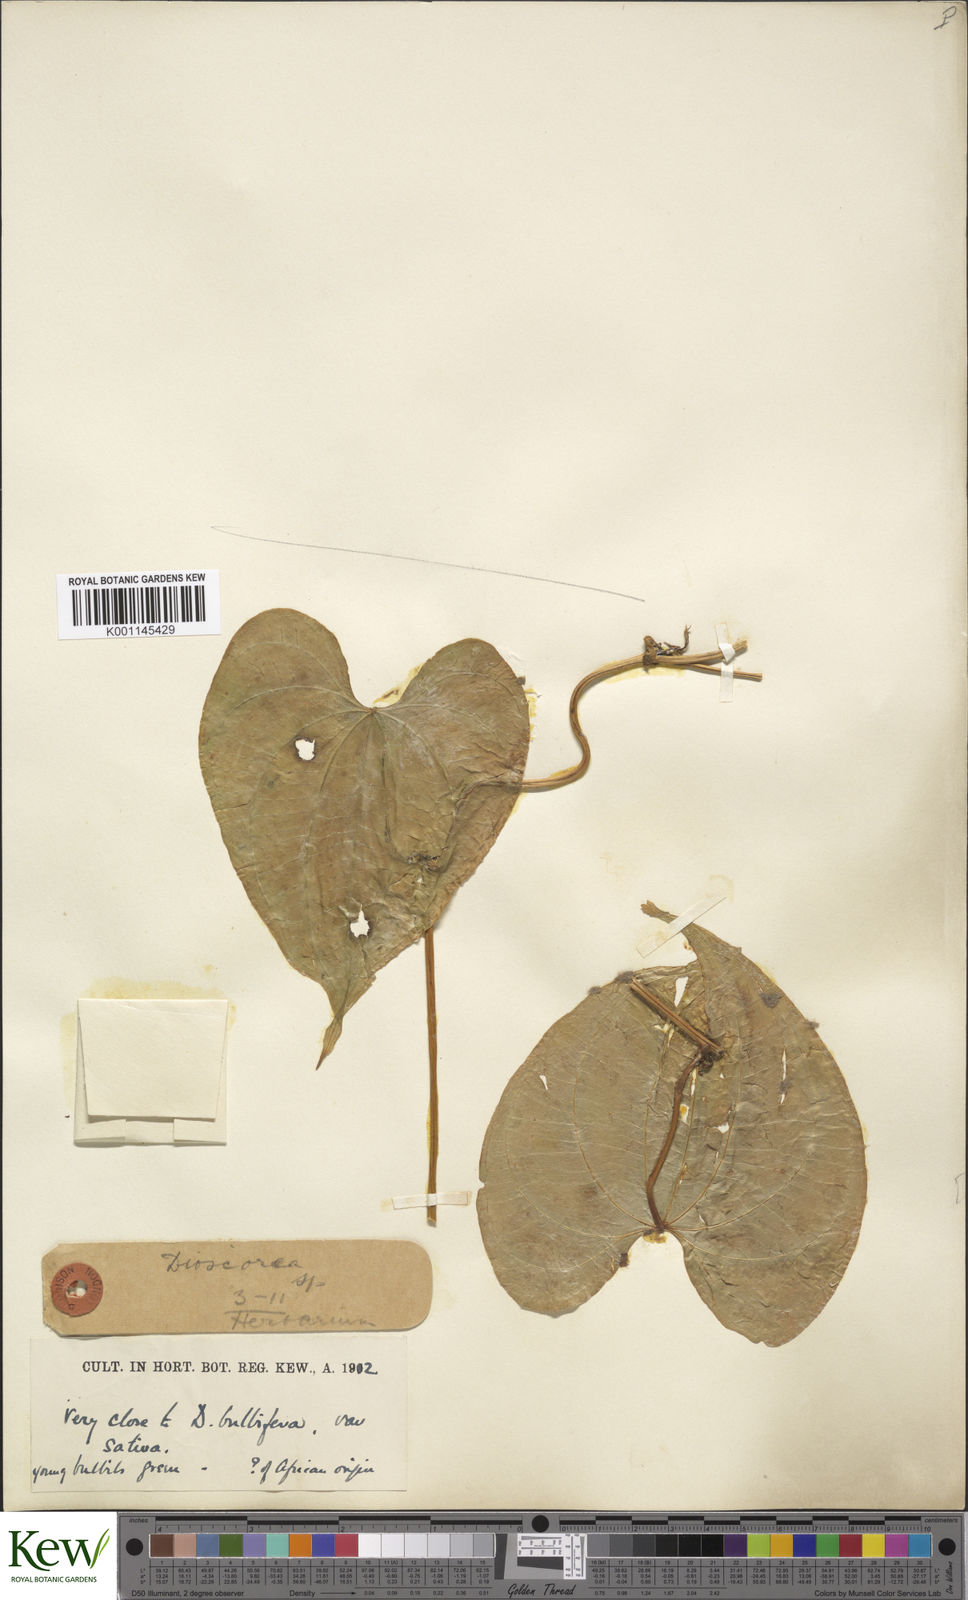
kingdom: Plantae
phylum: Tracheophyta
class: Liliopsida
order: Dioscoreales
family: Dioscoreaceae
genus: Dioscorea
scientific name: Dioscorea bulbifera
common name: Air yam
